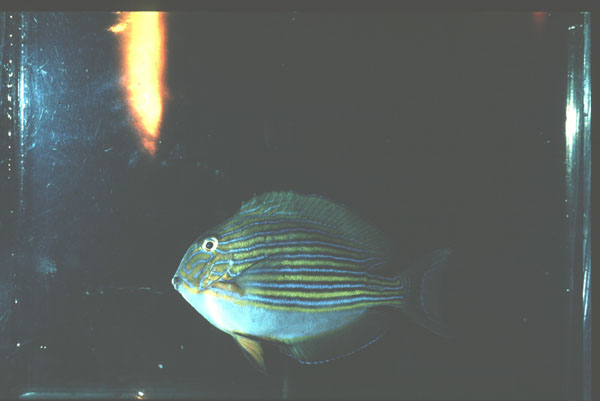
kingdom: Animalia
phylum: Chordata
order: Perciformes
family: Acanthuridae
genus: Acanthurus
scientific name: Acanthurus lineatus
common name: Striped surgeonfish
